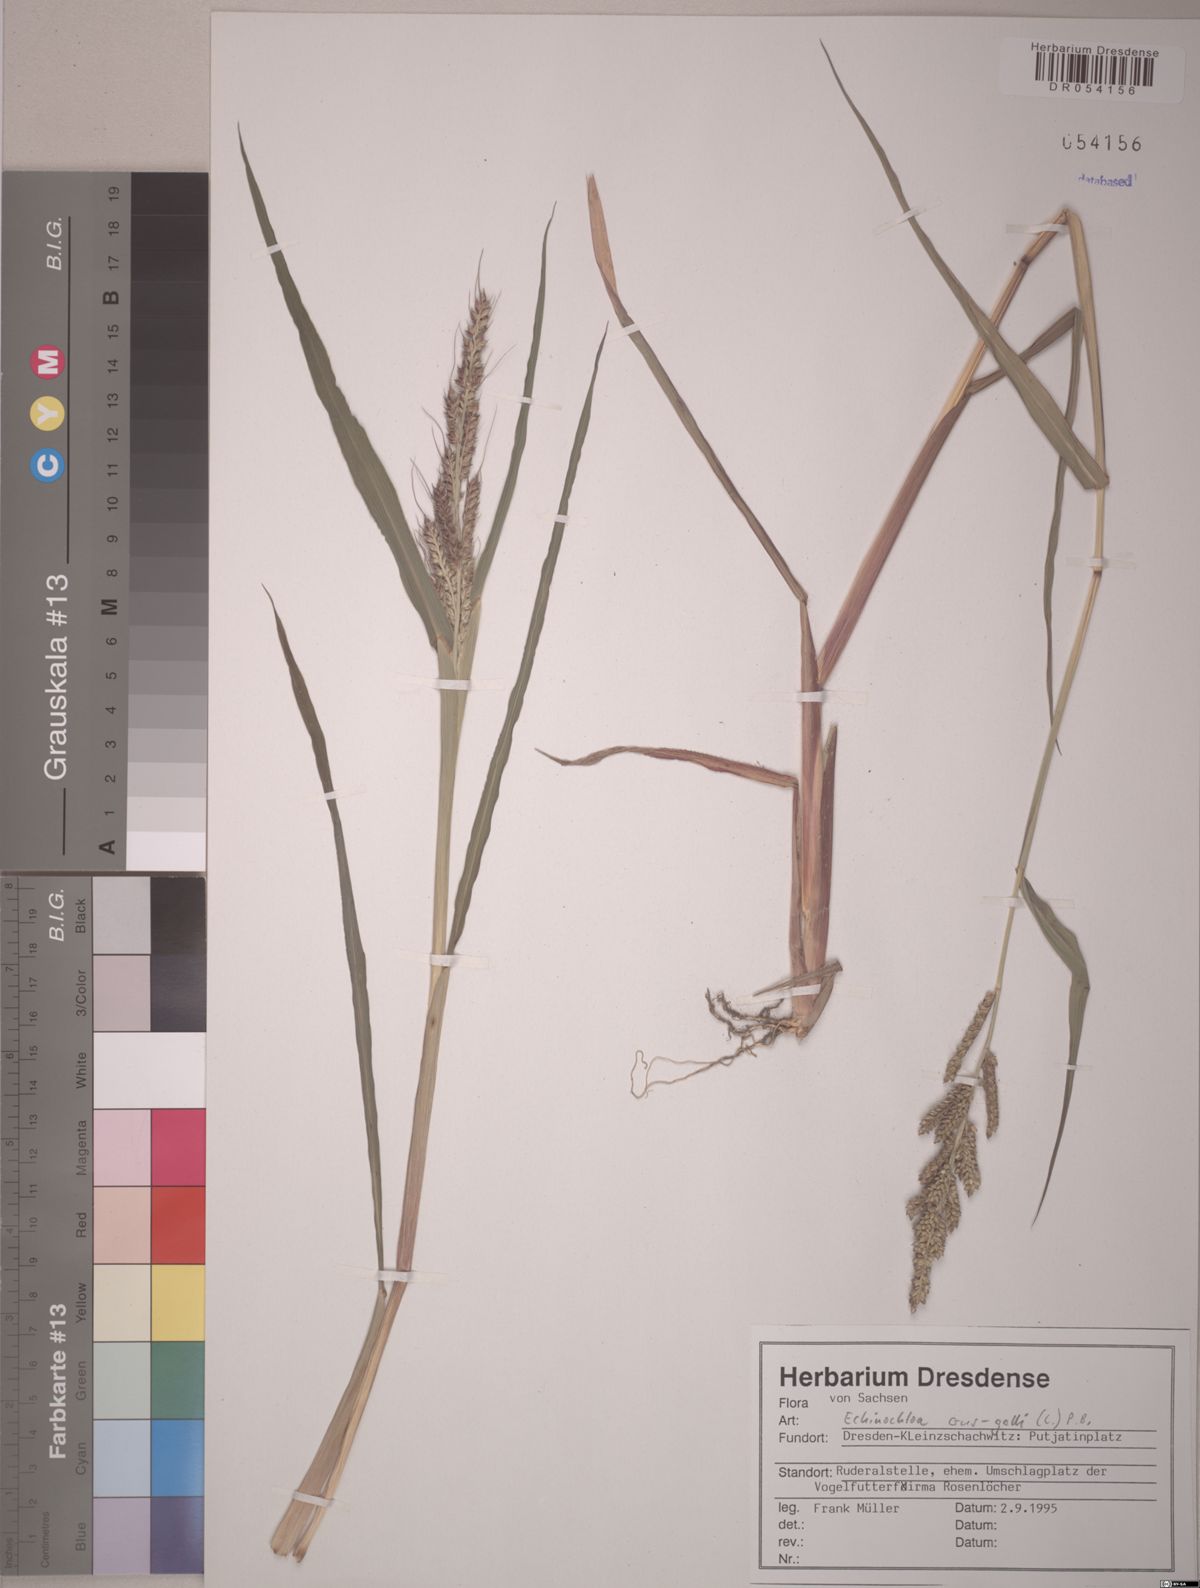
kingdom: Plantae
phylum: Tracheophyta
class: Liliopsida
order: Poales
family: Poaceae
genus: Echinochloa
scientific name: Echinochloa crus-galli
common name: Cockspur
